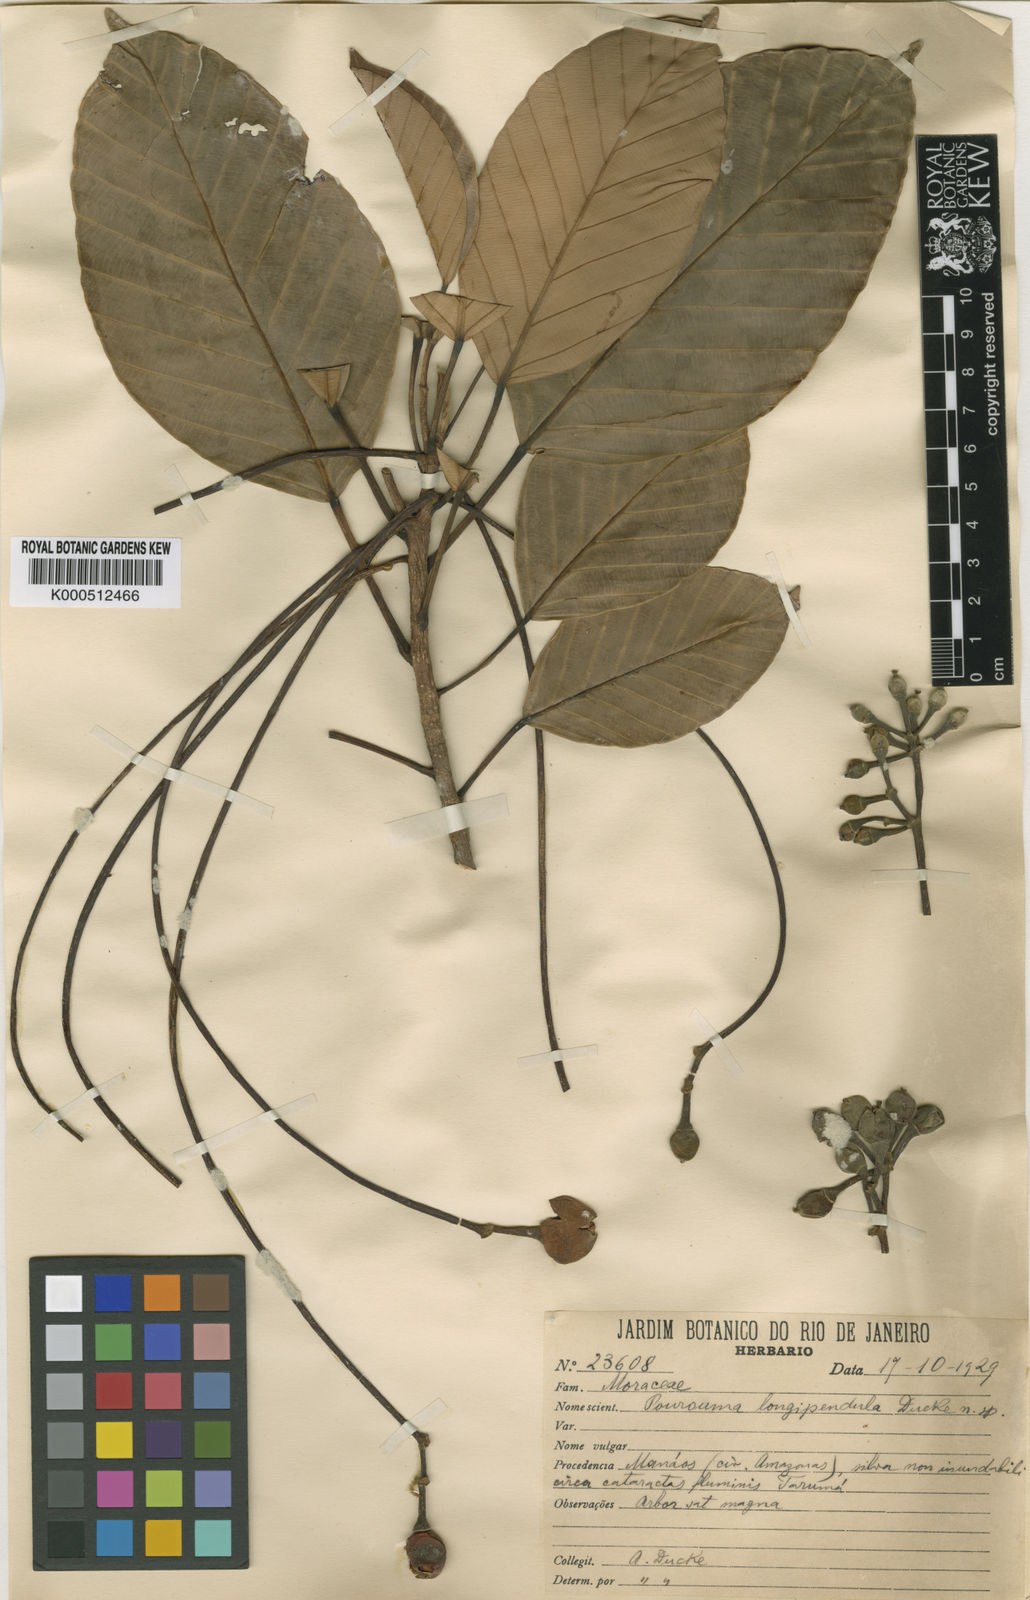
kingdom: Plantae
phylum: Tracheophyta
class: Magnoliopsida
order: Rosales
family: Urticaceae
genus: Pourouma
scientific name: Pourouma ovata
